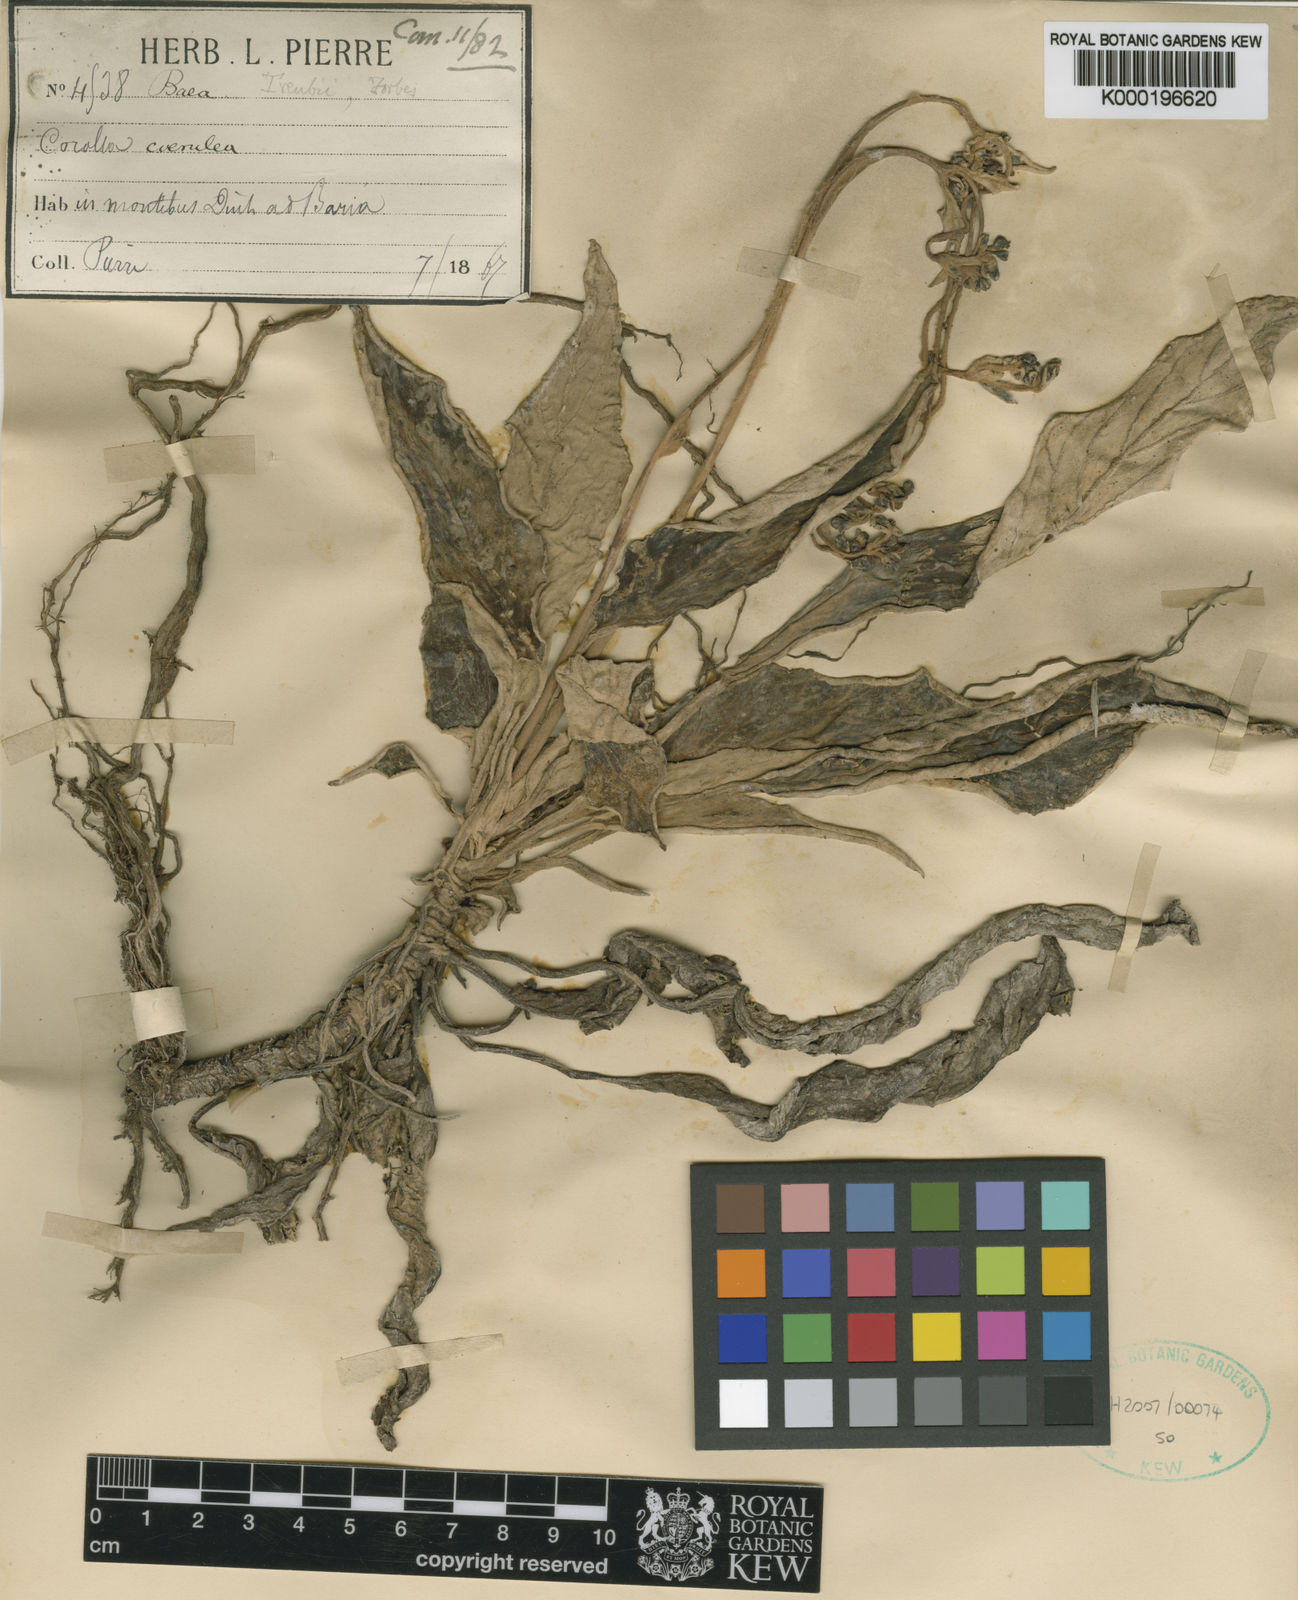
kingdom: Plantae
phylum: Tracheophyta
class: Magnoliopsida
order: Lamiales
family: Gesneriaceae
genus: Paraboea
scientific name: Paraboea dictyoneura
